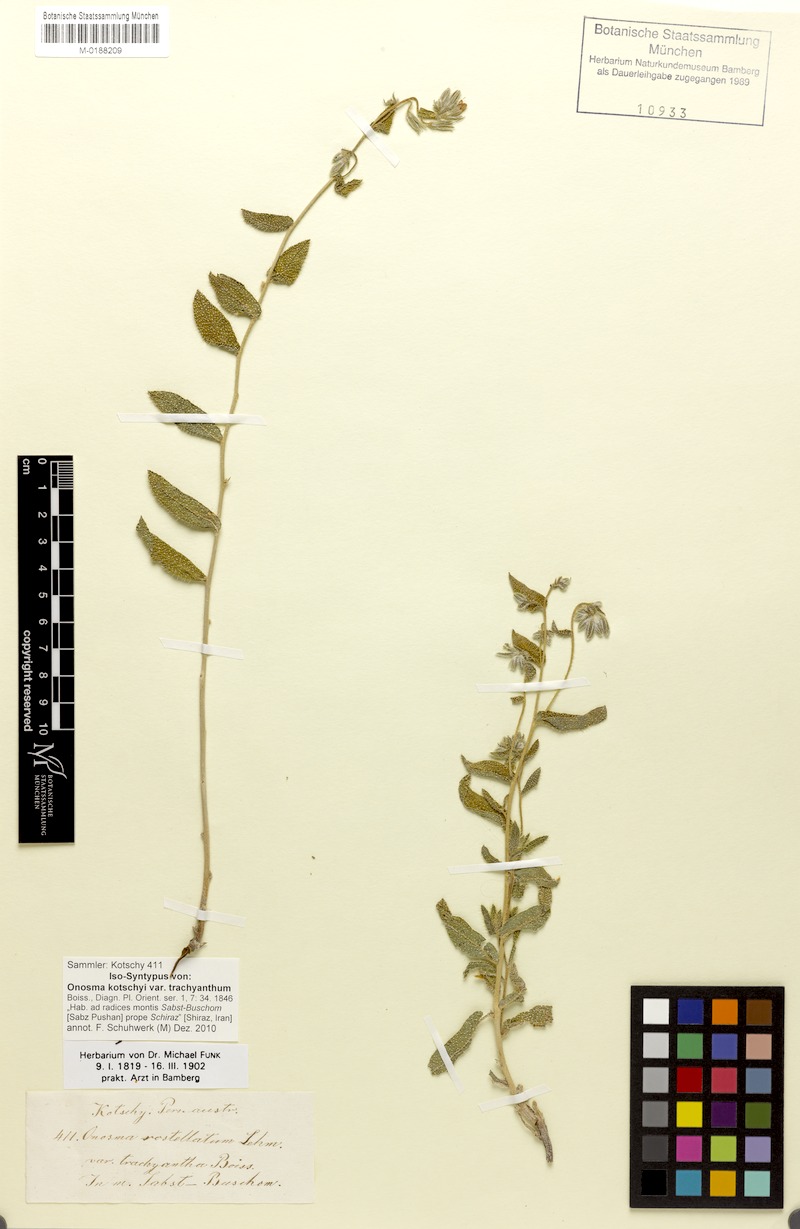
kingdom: Plantae
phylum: Tracheophyta
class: Magnoliopsida
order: Boraginales
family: Boraginaceae
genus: Onosma
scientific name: Onosma kotschyi
